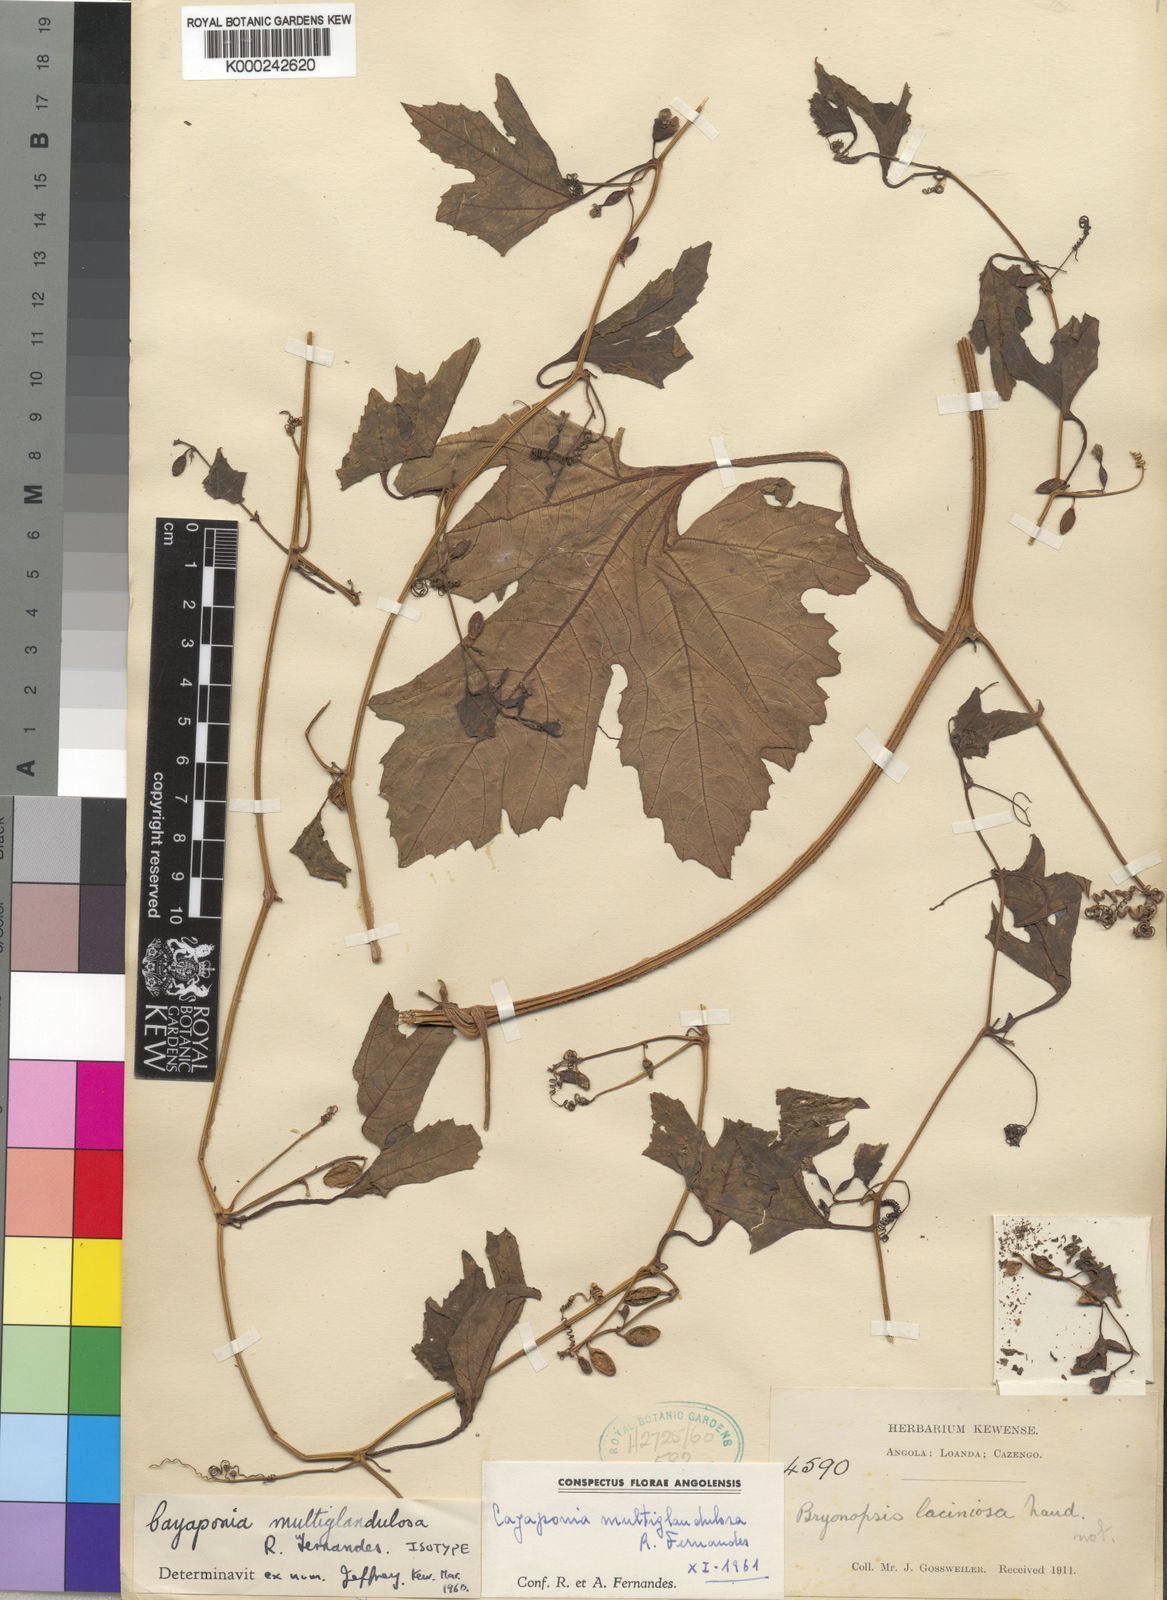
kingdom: Plantae
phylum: Tracheophyta
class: Magnoliopsida
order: Cucurbitales
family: Cucurbitaceae
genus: Cayaponia
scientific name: Cayaponia multiglandulosa
